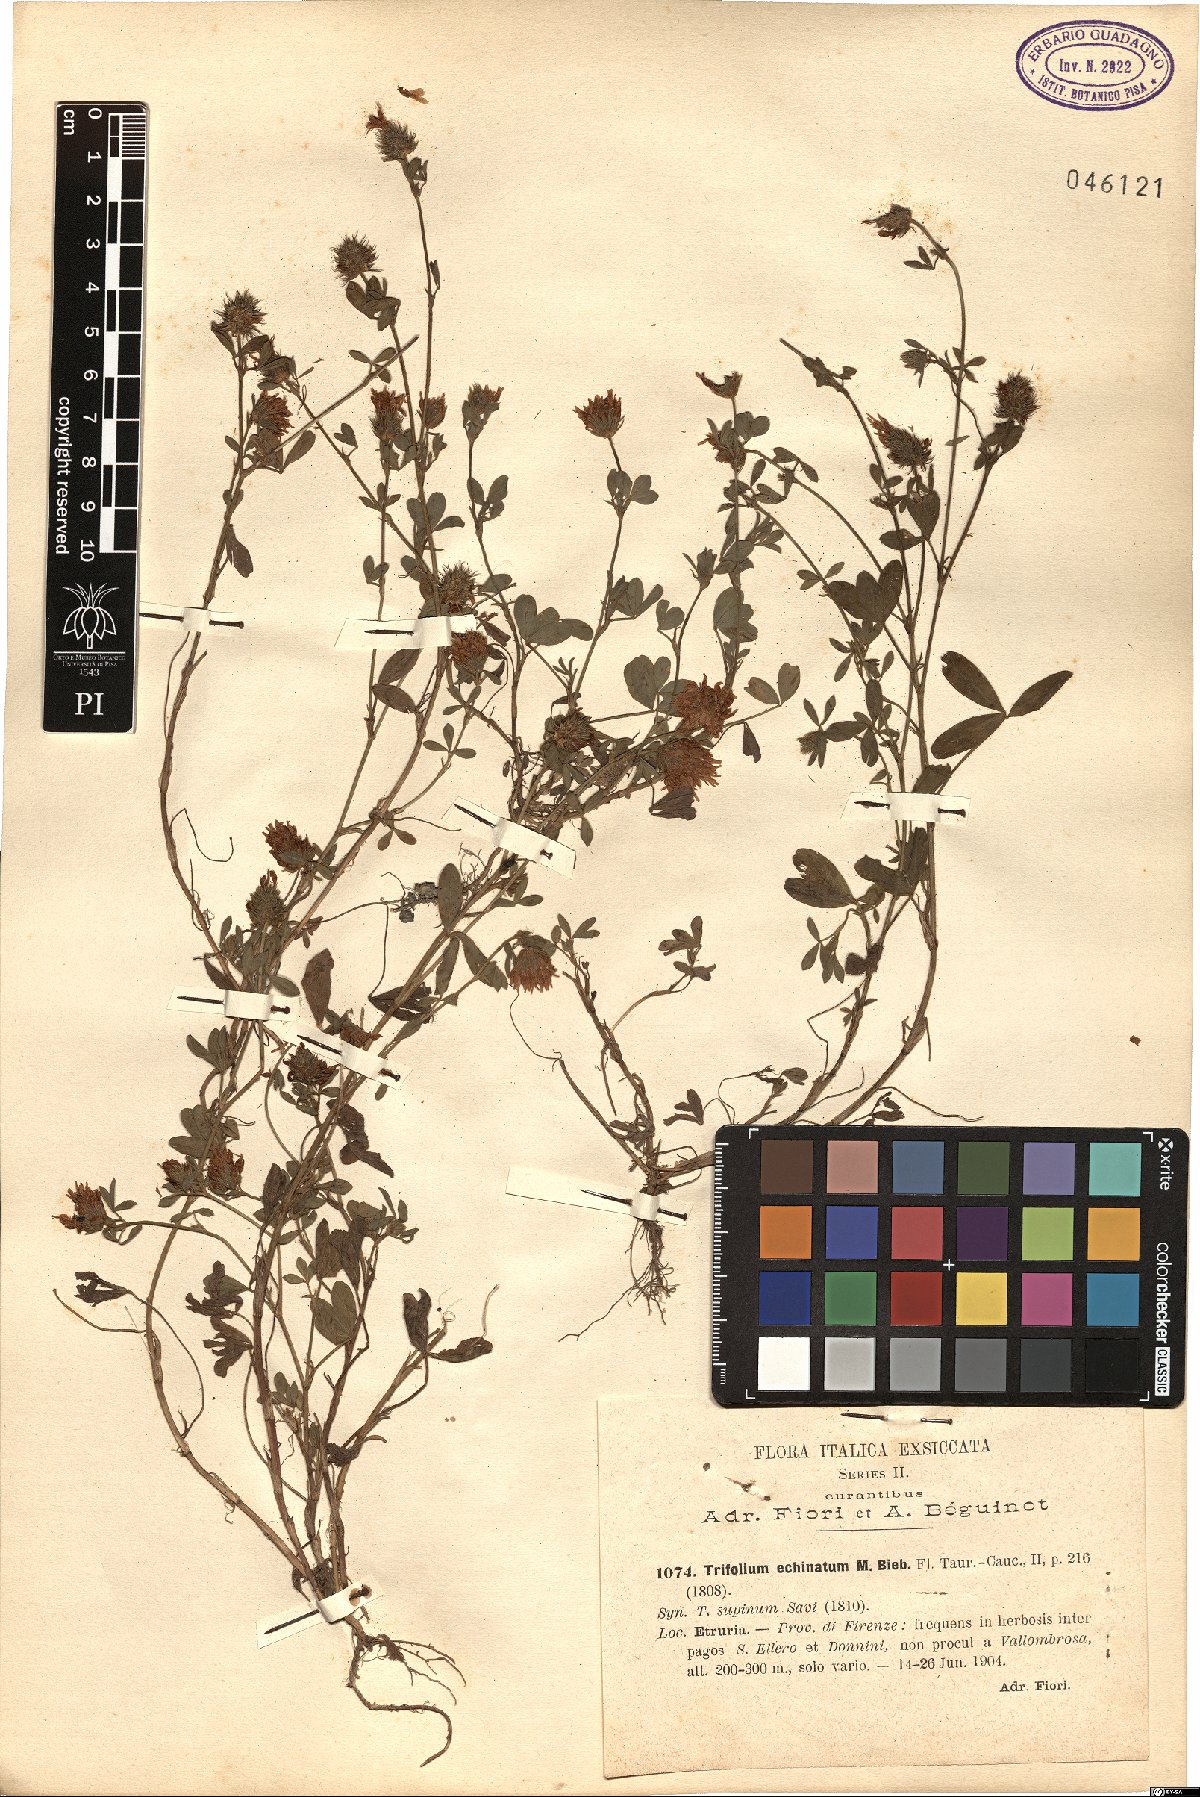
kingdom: Plantae
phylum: Tracheophyta
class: Magnoliopsida
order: Fabales
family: Fabaceae
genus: Trifolium
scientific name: Trifolium echinatum
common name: Hedgehog clover
